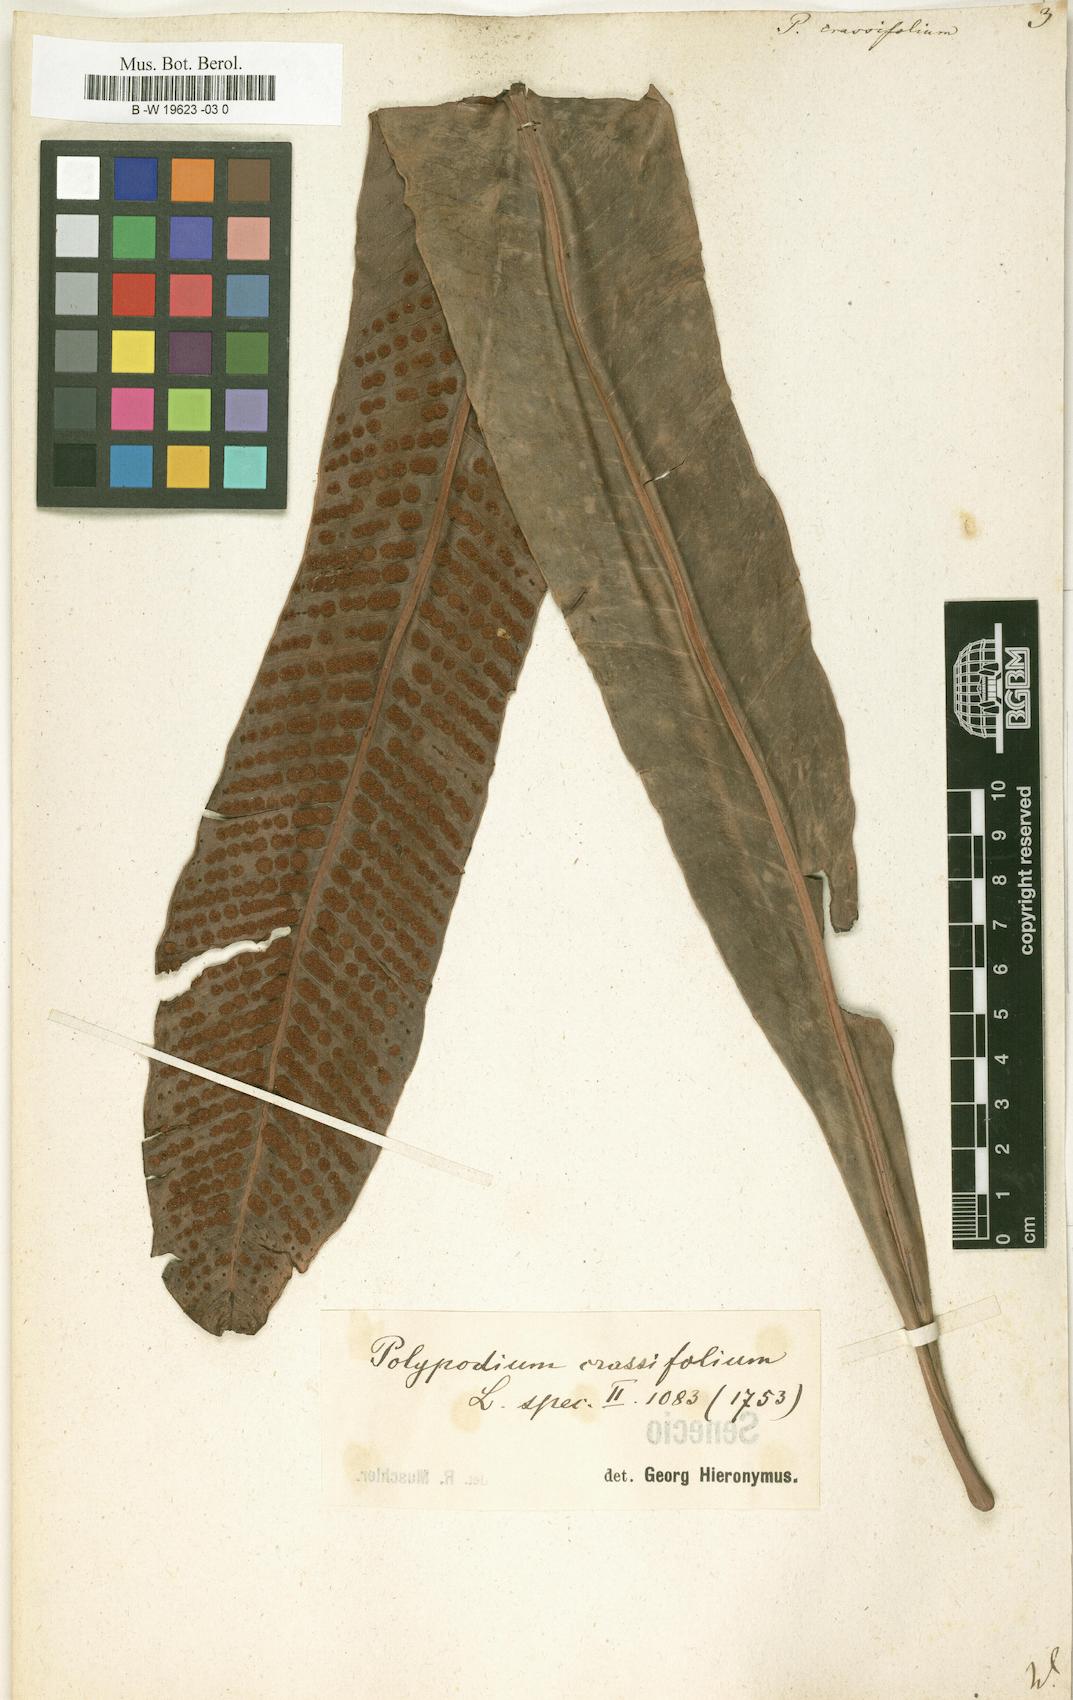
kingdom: Plantae
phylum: Tracheophyta
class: Polypodiopsida
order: Polypodiales
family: Polypodiaceae
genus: Niphidium
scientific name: Niphidium crassifolium
